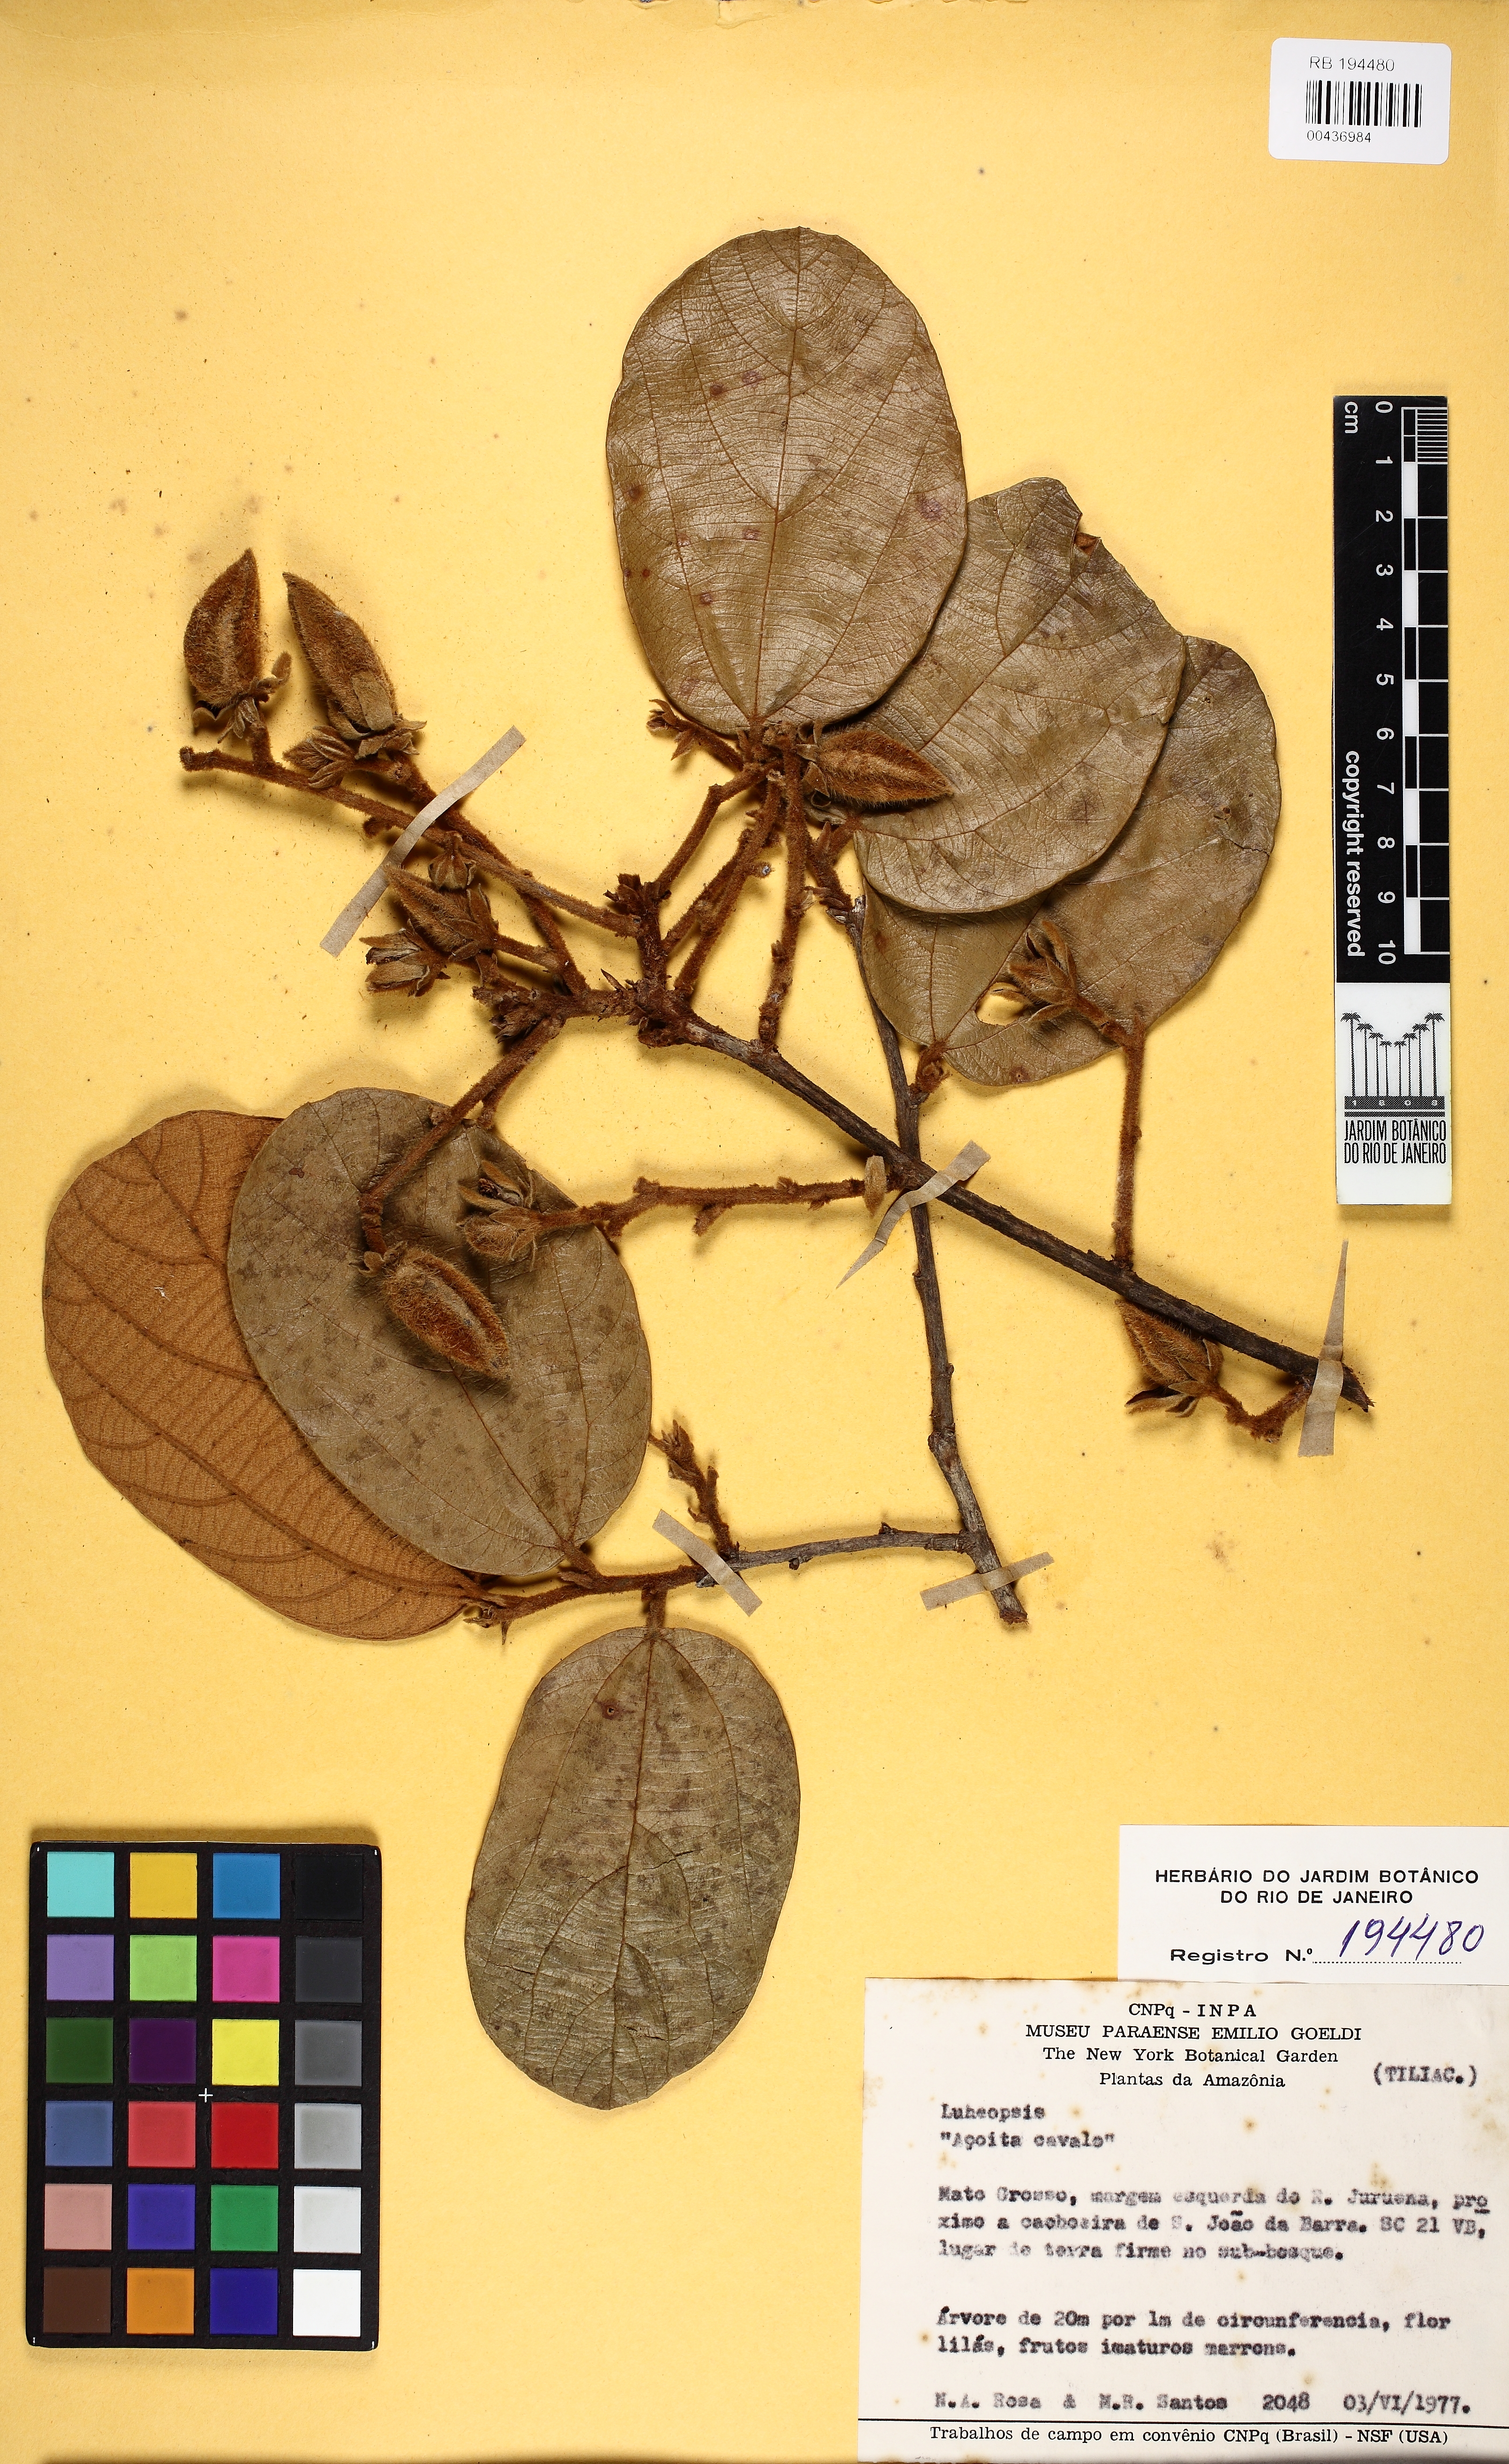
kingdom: Plantae
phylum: Tracheophyta
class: Magnoliopsida
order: Malvales
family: Malvaceae
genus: Lueheopsis
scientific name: Lueheopsis
